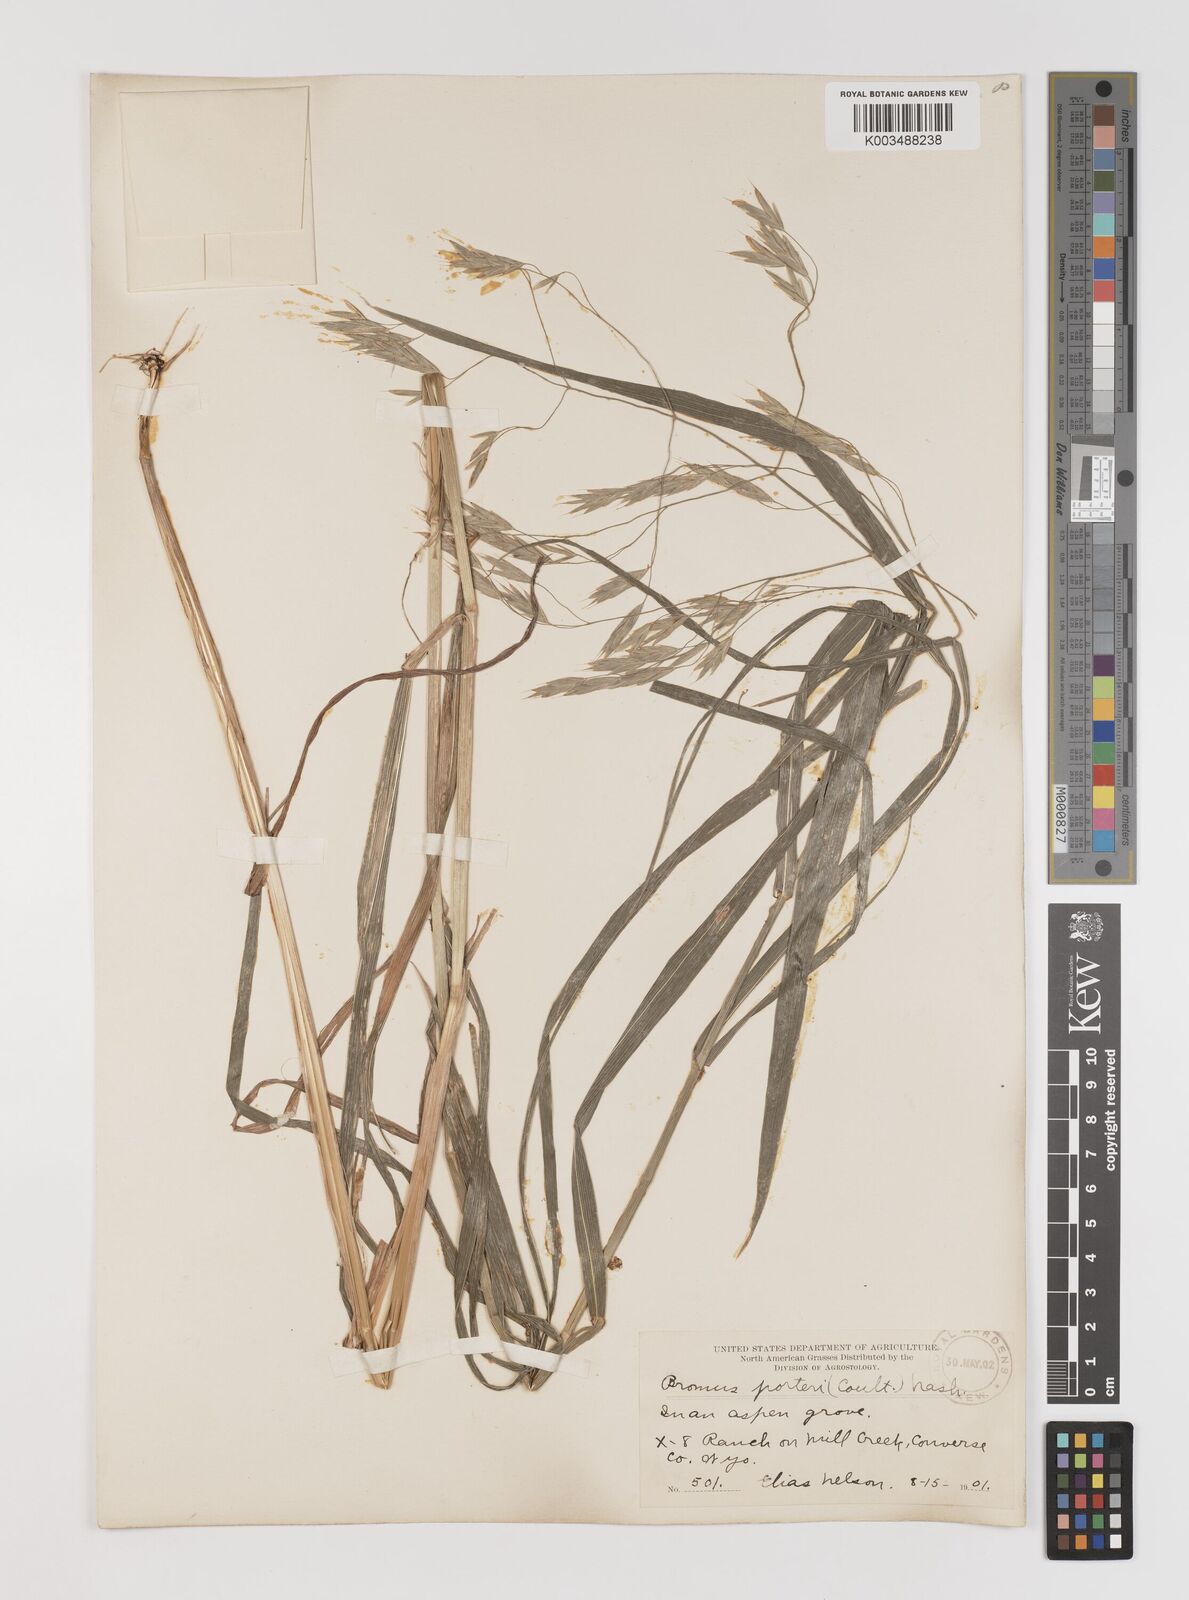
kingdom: Plantae
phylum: Tracheophyta
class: Liliopsida
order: Poales
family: Poaceae
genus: Bromus
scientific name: Bromus porteri
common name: Nodding brome
